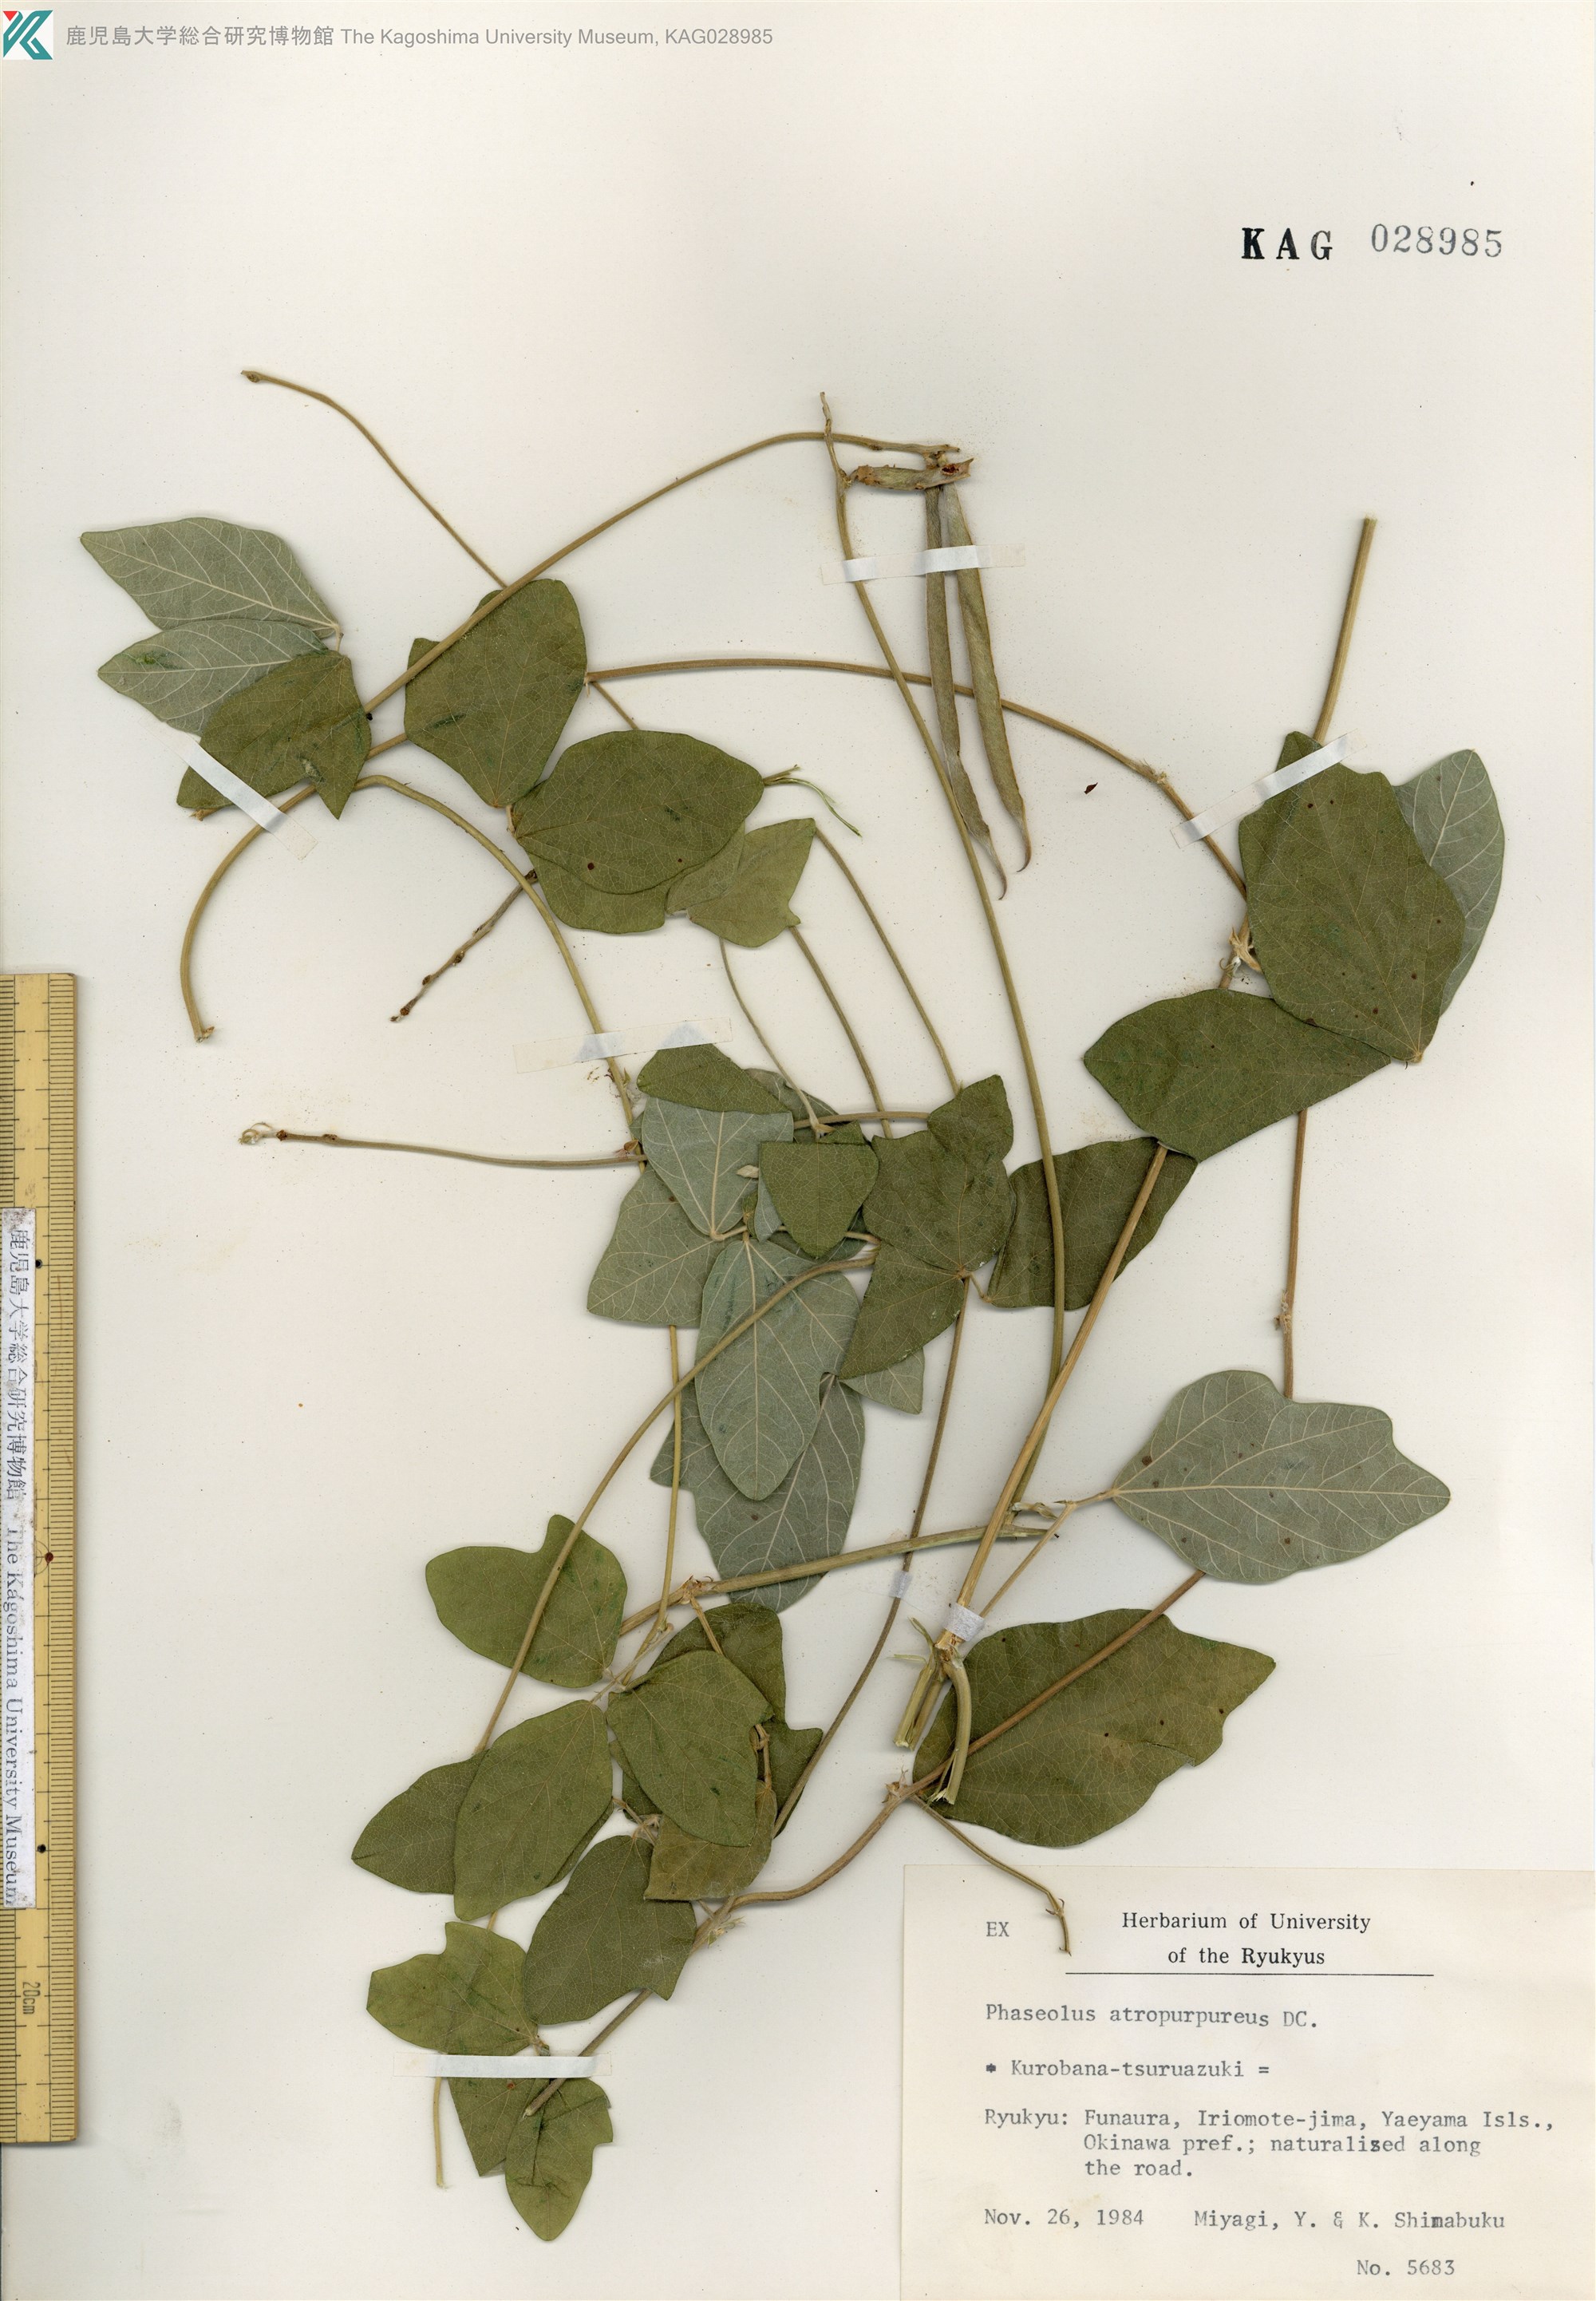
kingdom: Plantae
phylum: Tracheophyta
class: Magnoliopsida
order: Fabales
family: Fabaceae
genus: Macroptilium
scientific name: Macroptilium atropurpureum
